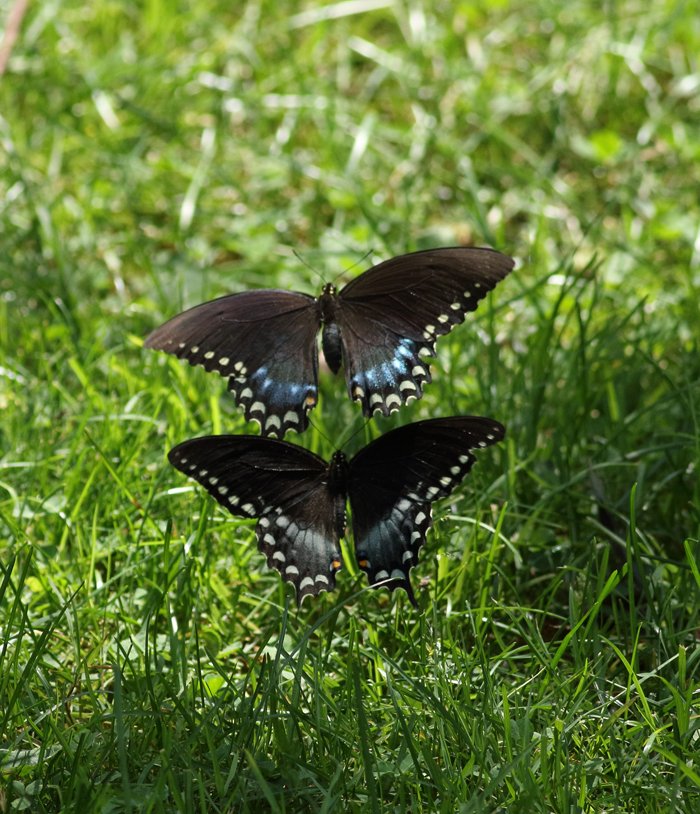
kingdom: Animalia
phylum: Arthropoda
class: Insecta
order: Lepidoptera
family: Papilionidae
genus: Pterourus
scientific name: Pterourus troilus
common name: Spicebush Swallowtail
